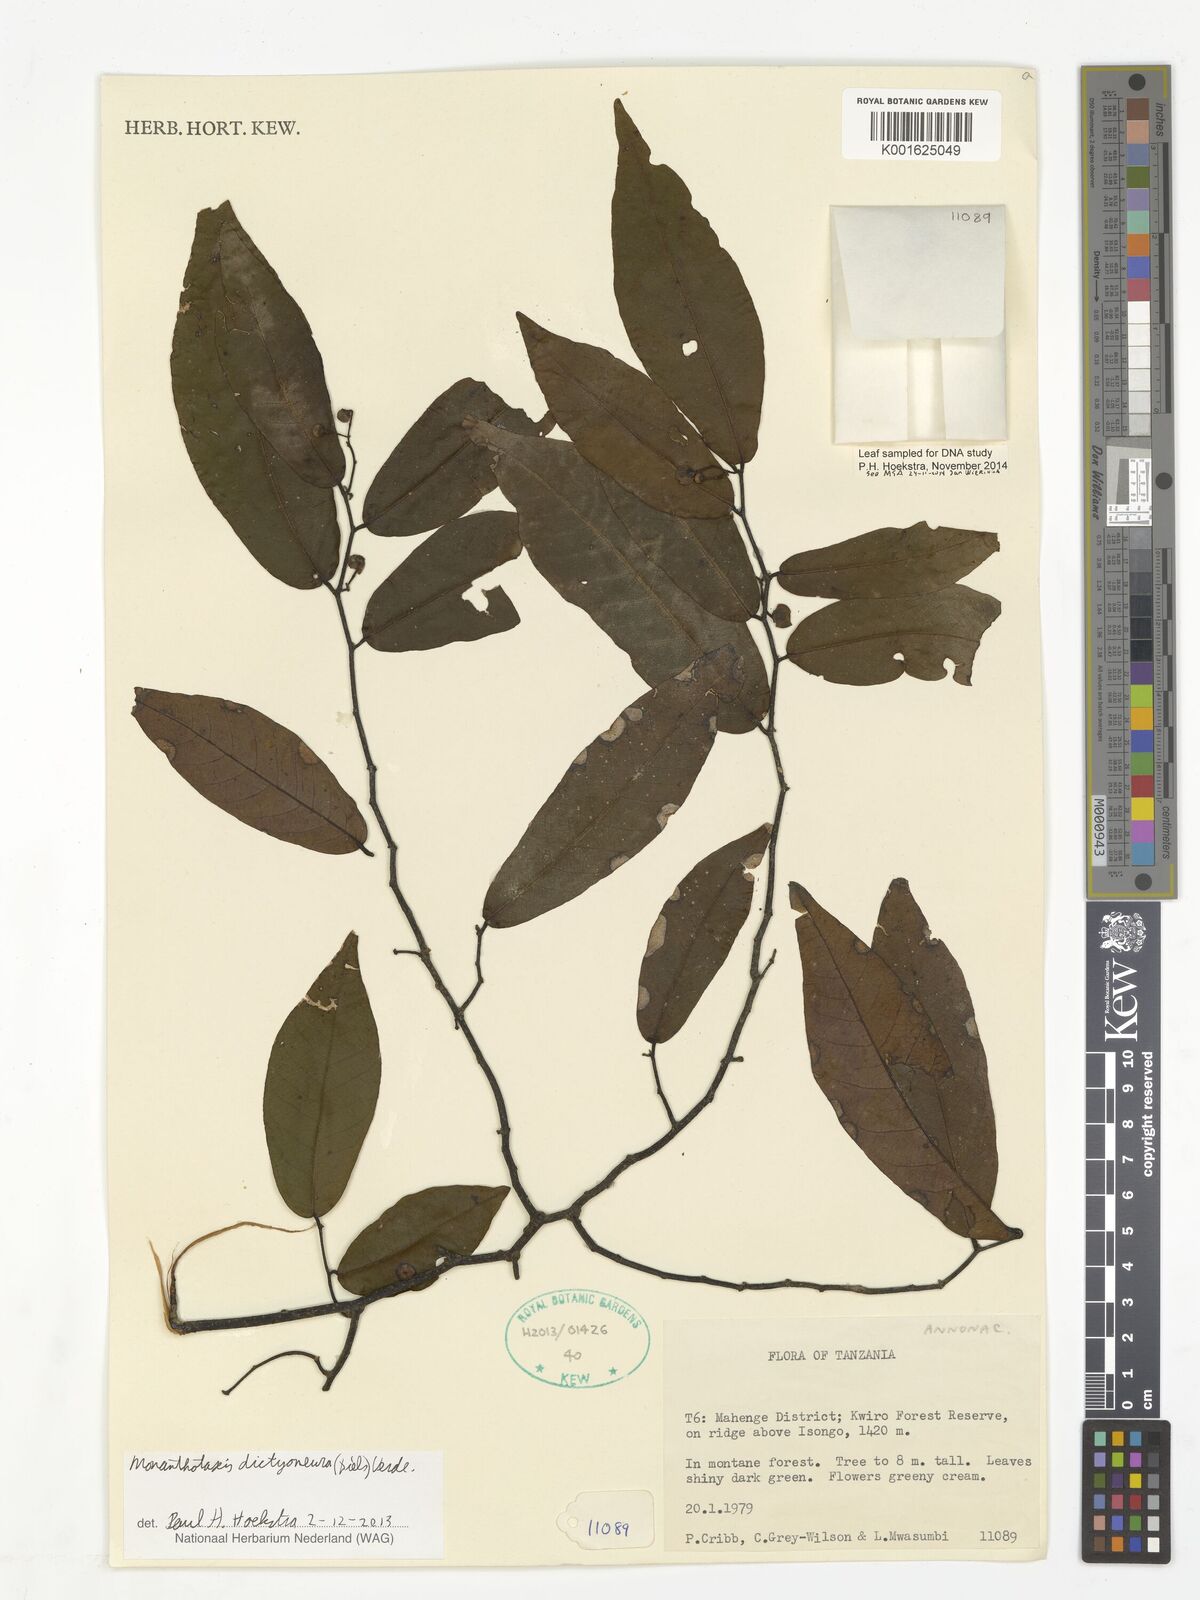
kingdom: Plantae
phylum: Tracheophyta
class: Magnoliopsida
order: Magnoliales
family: Annonaceae
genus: Monanthotaxis
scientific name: Monanthotaxis dictyoneura
